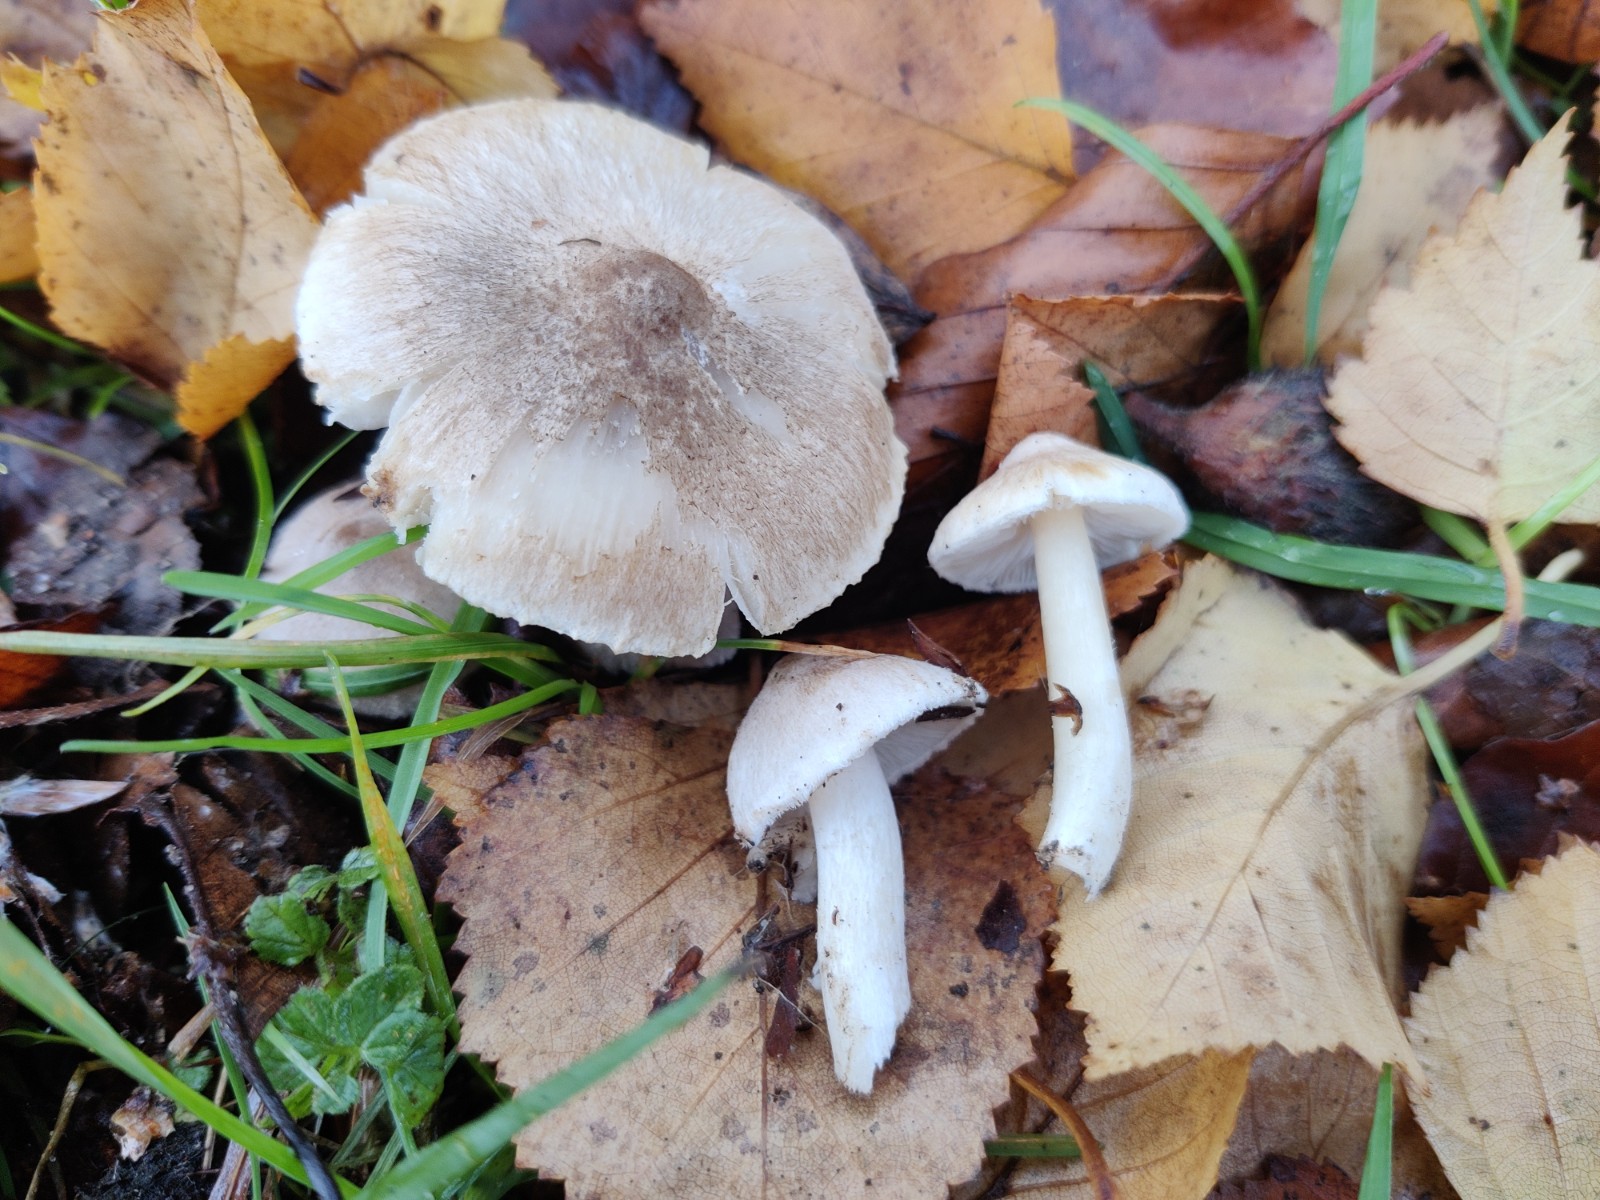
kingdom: Fungi
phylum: Basidiomycota
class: Agaricomycetes
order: Agaricales
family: Tricholomataceae
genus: Tricholoma
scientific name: Tricholoma argyraceum
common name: spids ridderhat
